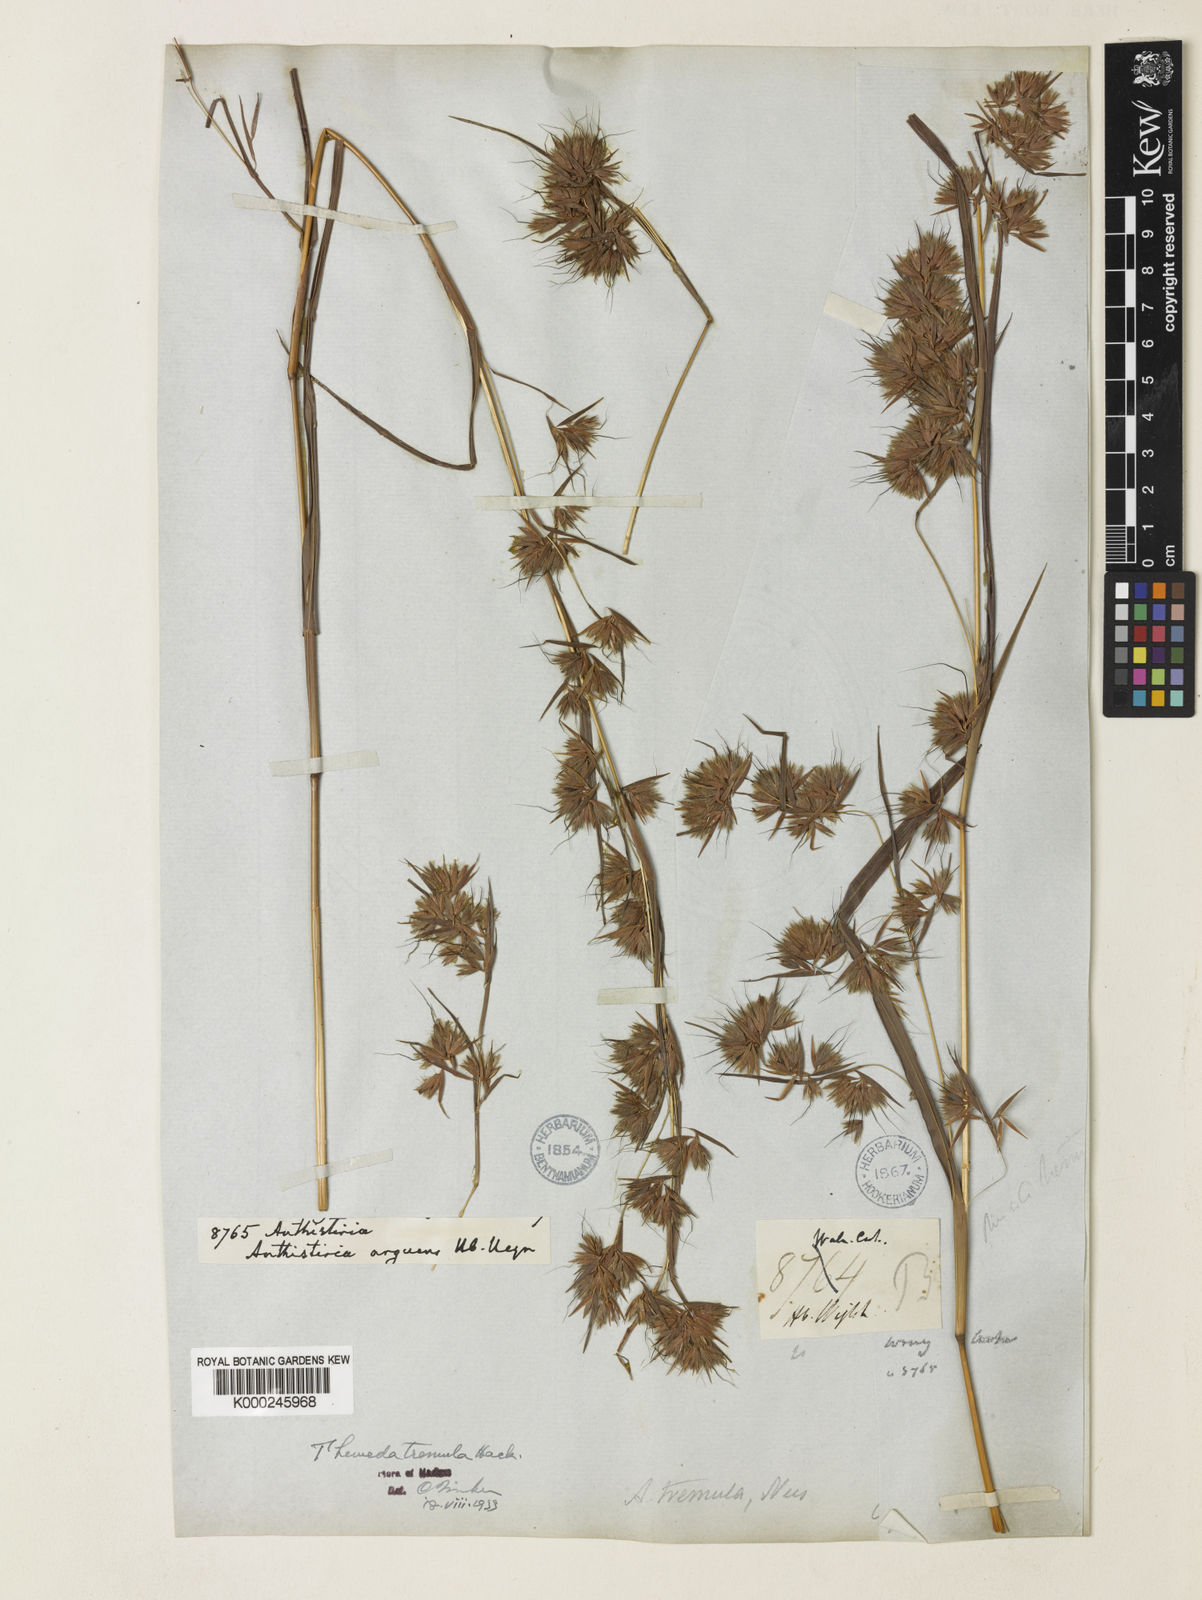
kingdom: Plantae
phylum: Tracheophyta
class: Liliopsida
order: Poales
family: Poaceae
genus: Themeda
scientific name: Themeda tremula
